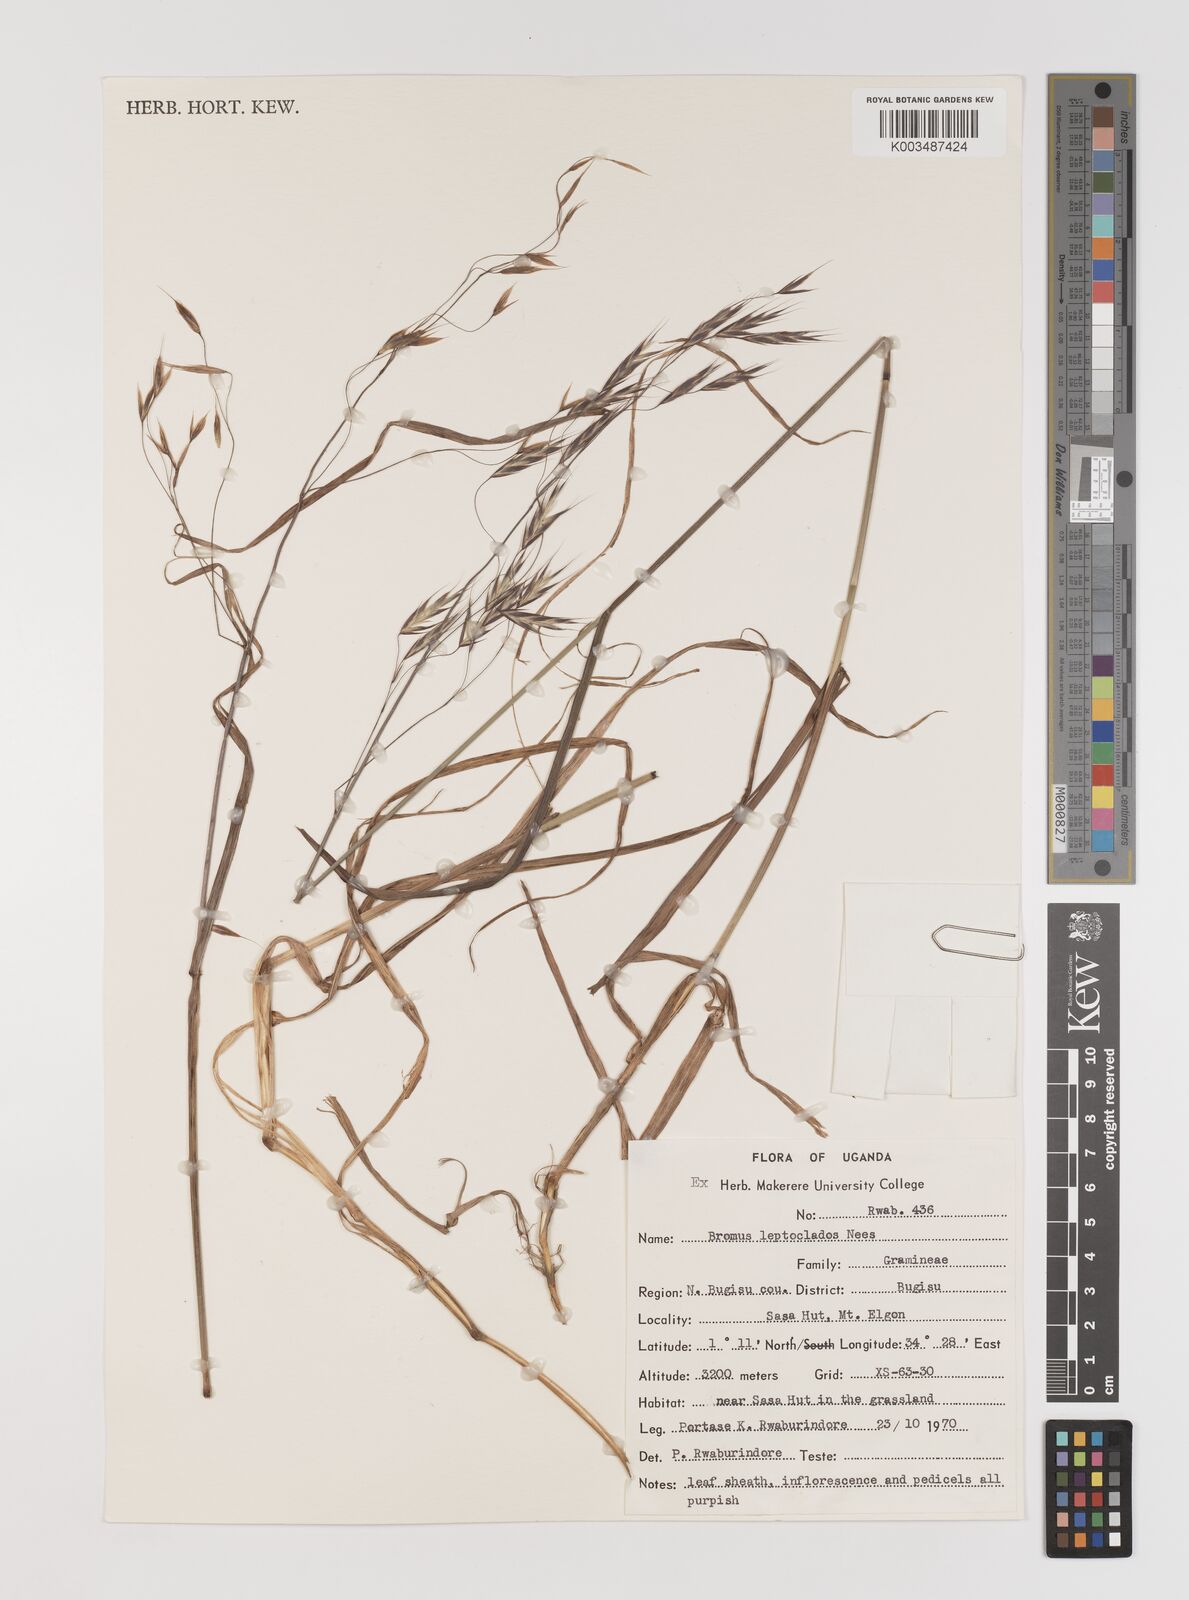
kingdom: Plantae
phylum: Tracheophyta
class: Liliopsida
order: Poales
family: Poaceae
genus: Bromus
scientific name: Bromus leptoclados
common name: Mountain bromegrass
